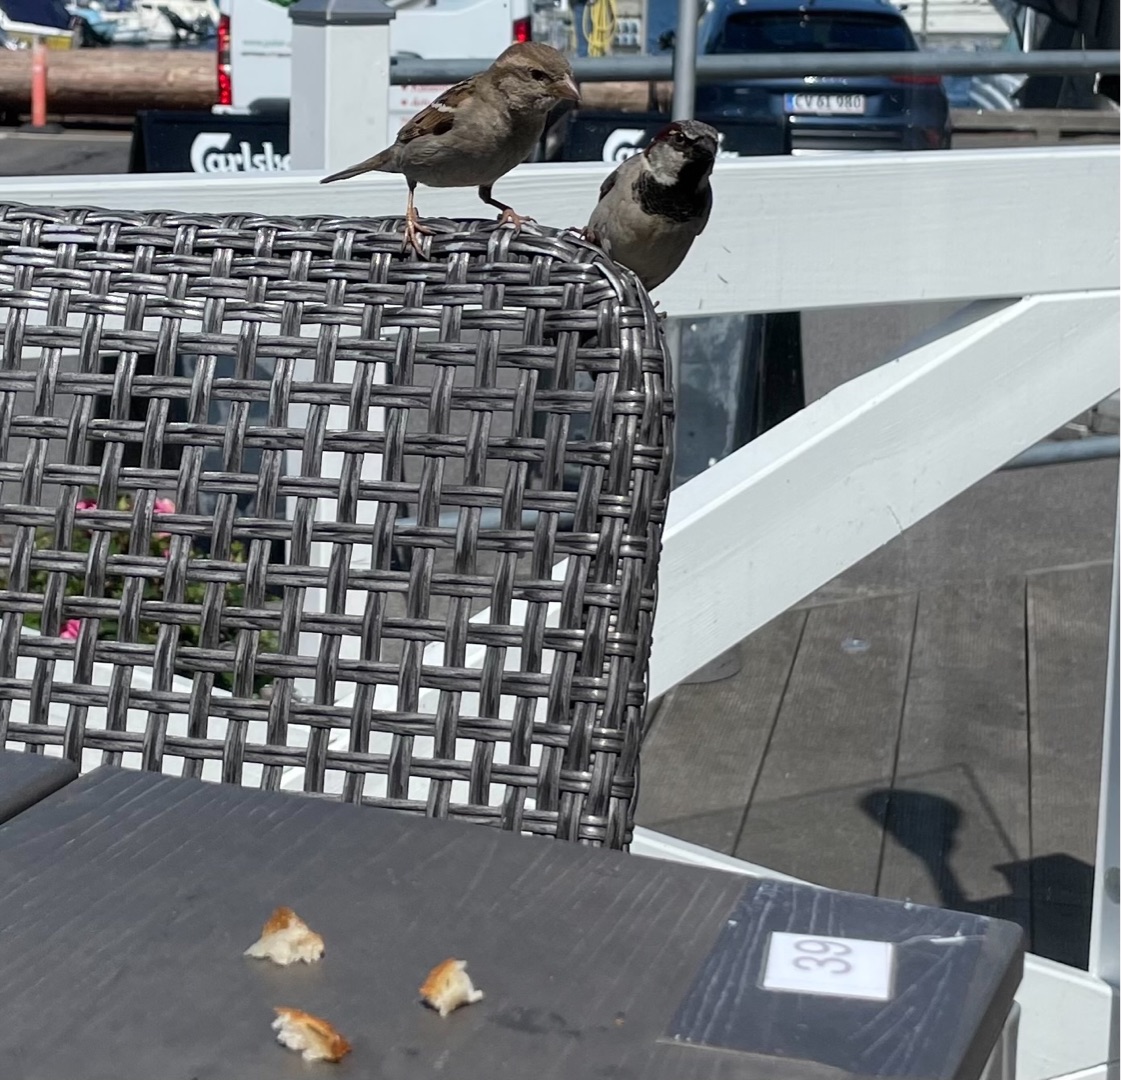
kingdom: Animalia
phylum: Chordata
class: Aves
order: Passeriformes
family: Passeridae
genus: Passer
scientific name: Passer domesticus
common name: Gråspurv
